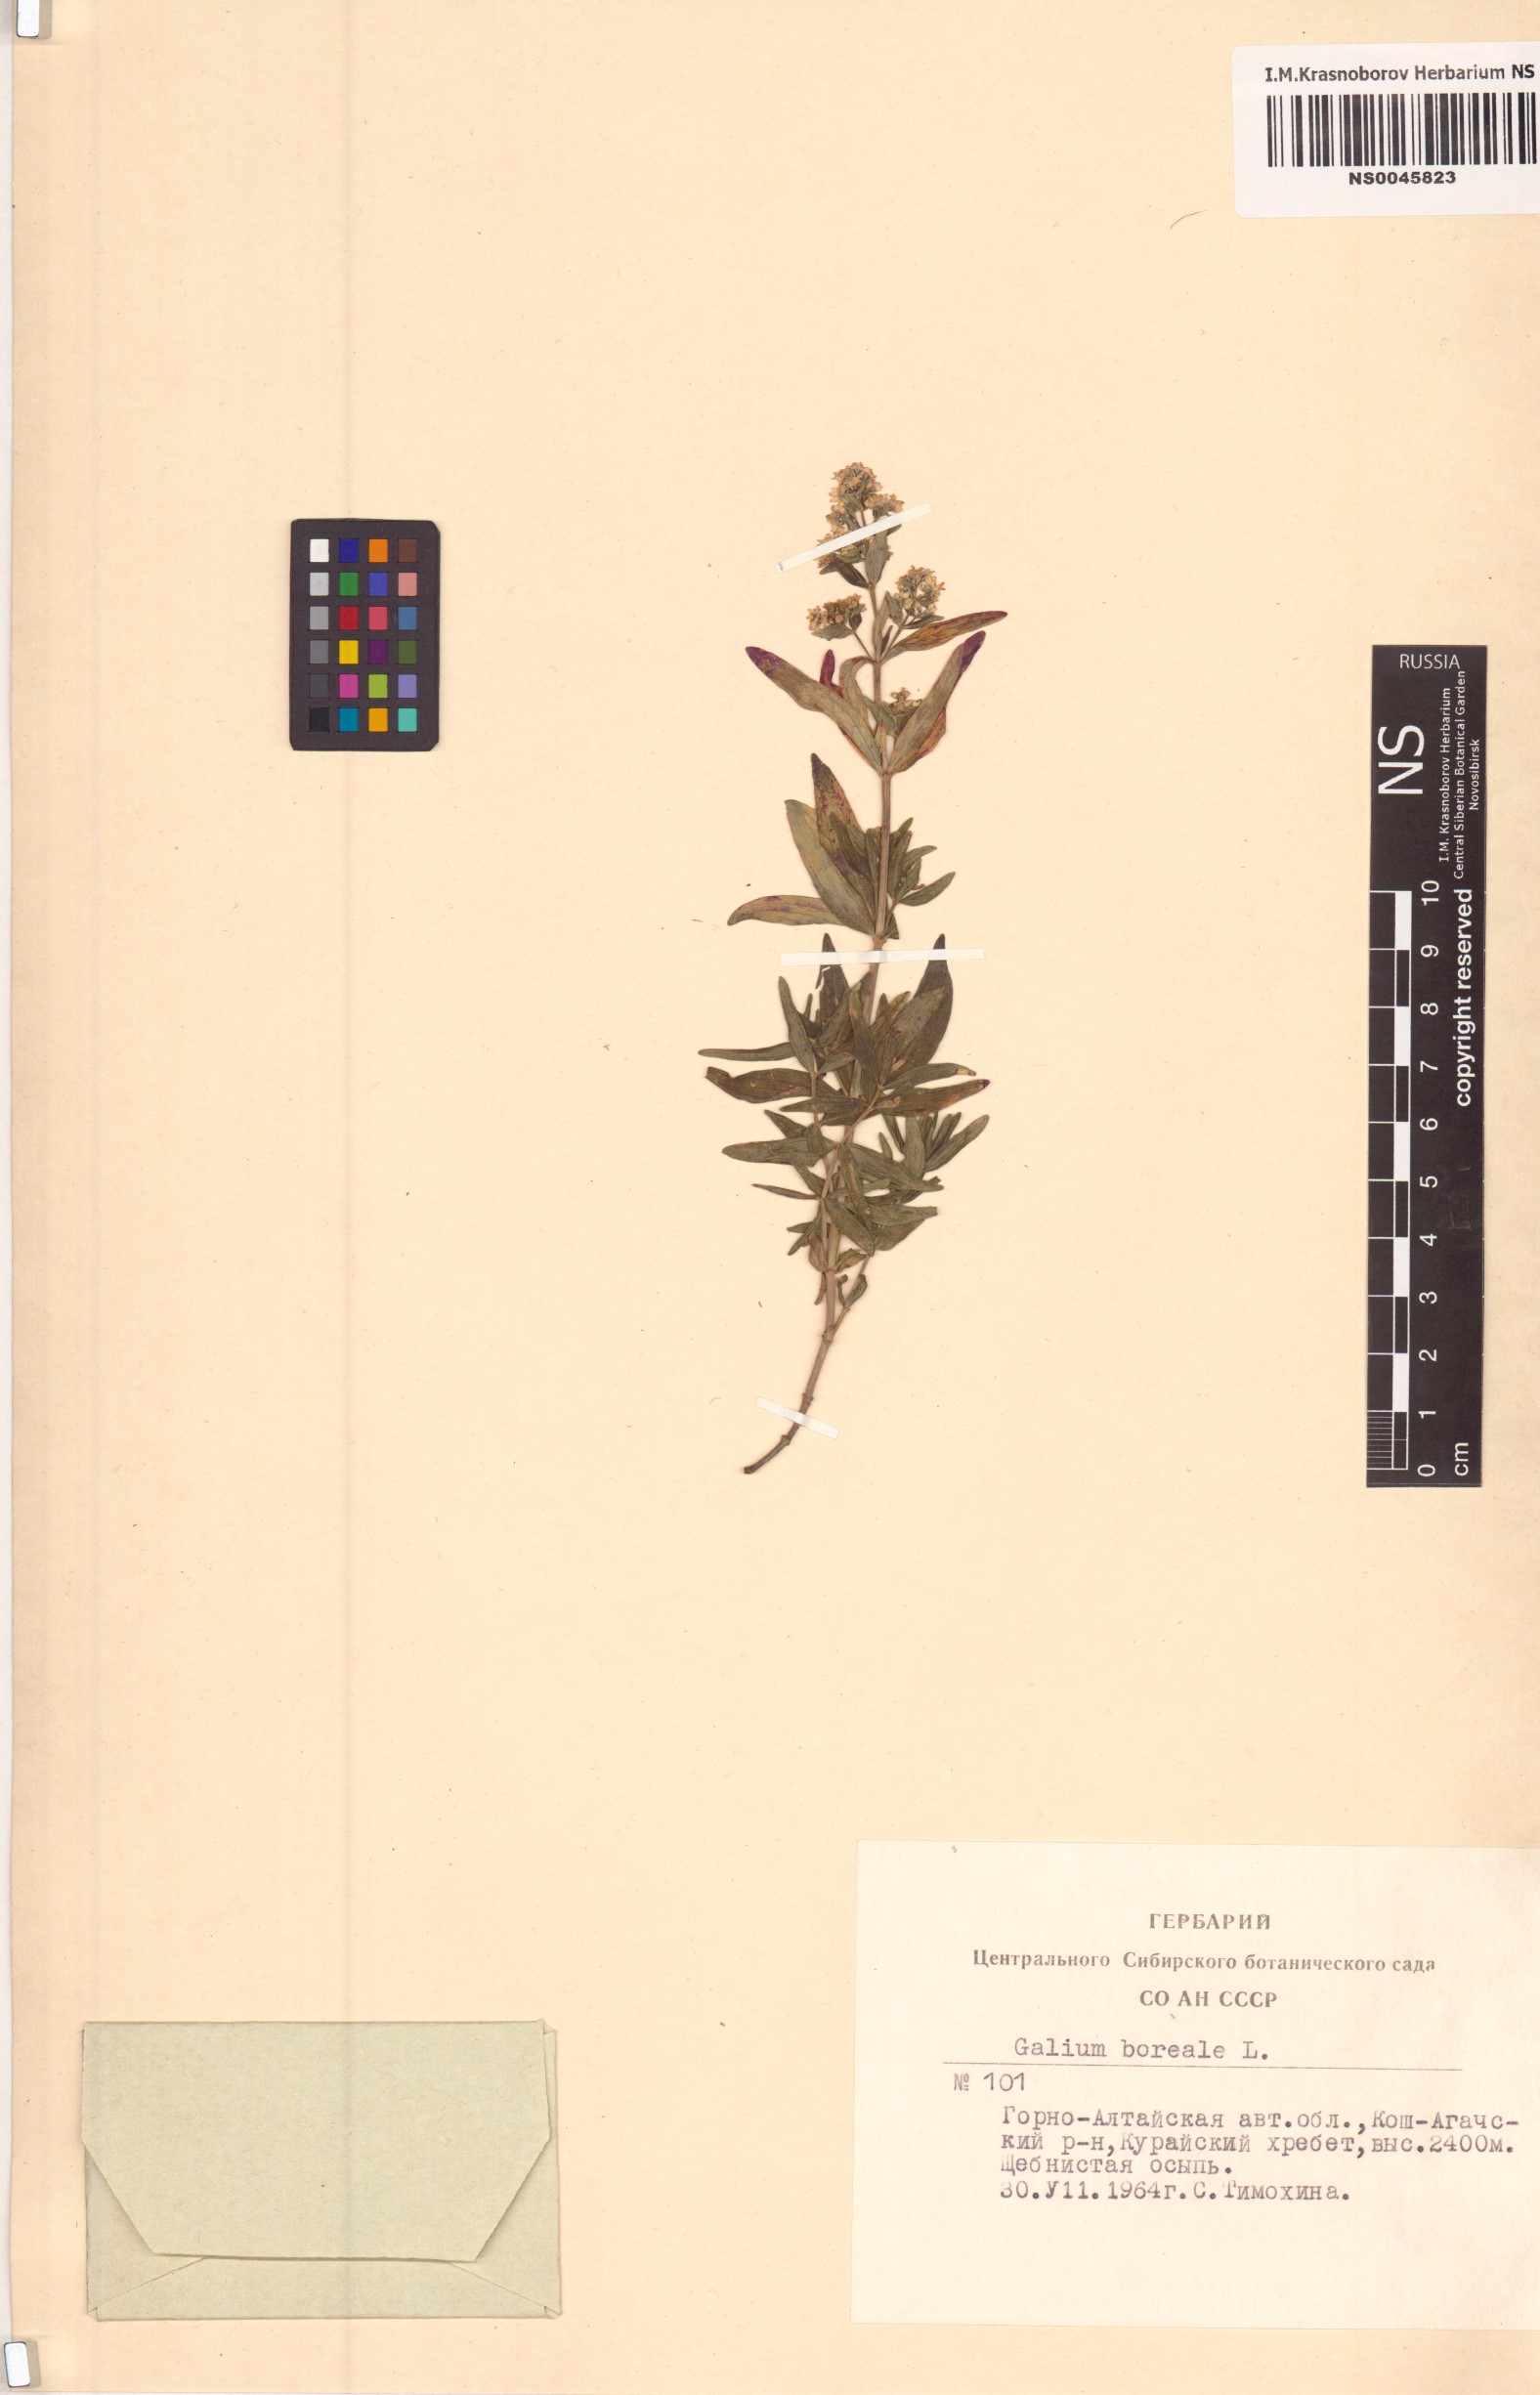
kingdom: Plantae
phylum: Tracheophyta
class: Magnoliopsida
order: Gentianales
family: Rubiaceae
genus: Galium
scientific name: Galium boreale
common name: Northern bedstraw
